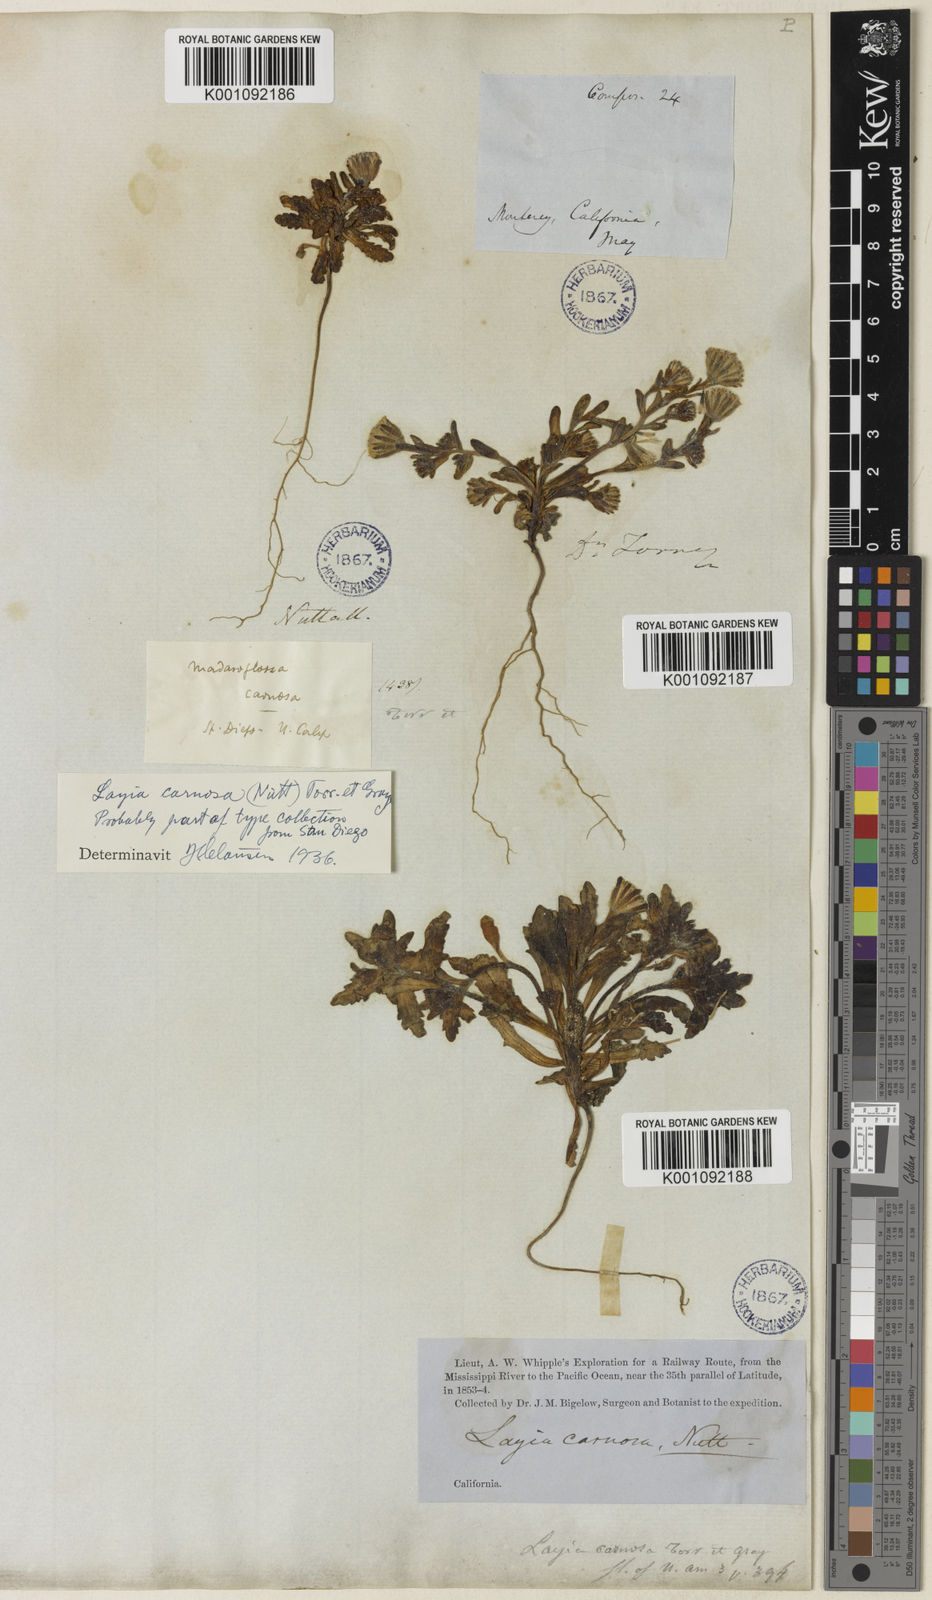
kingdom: Plantae
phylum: Tracheophyta
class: Magnoliopsida
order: Asterales
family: Asteraceae
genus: Layia
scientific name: Layia carnosa
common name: Beach layia
